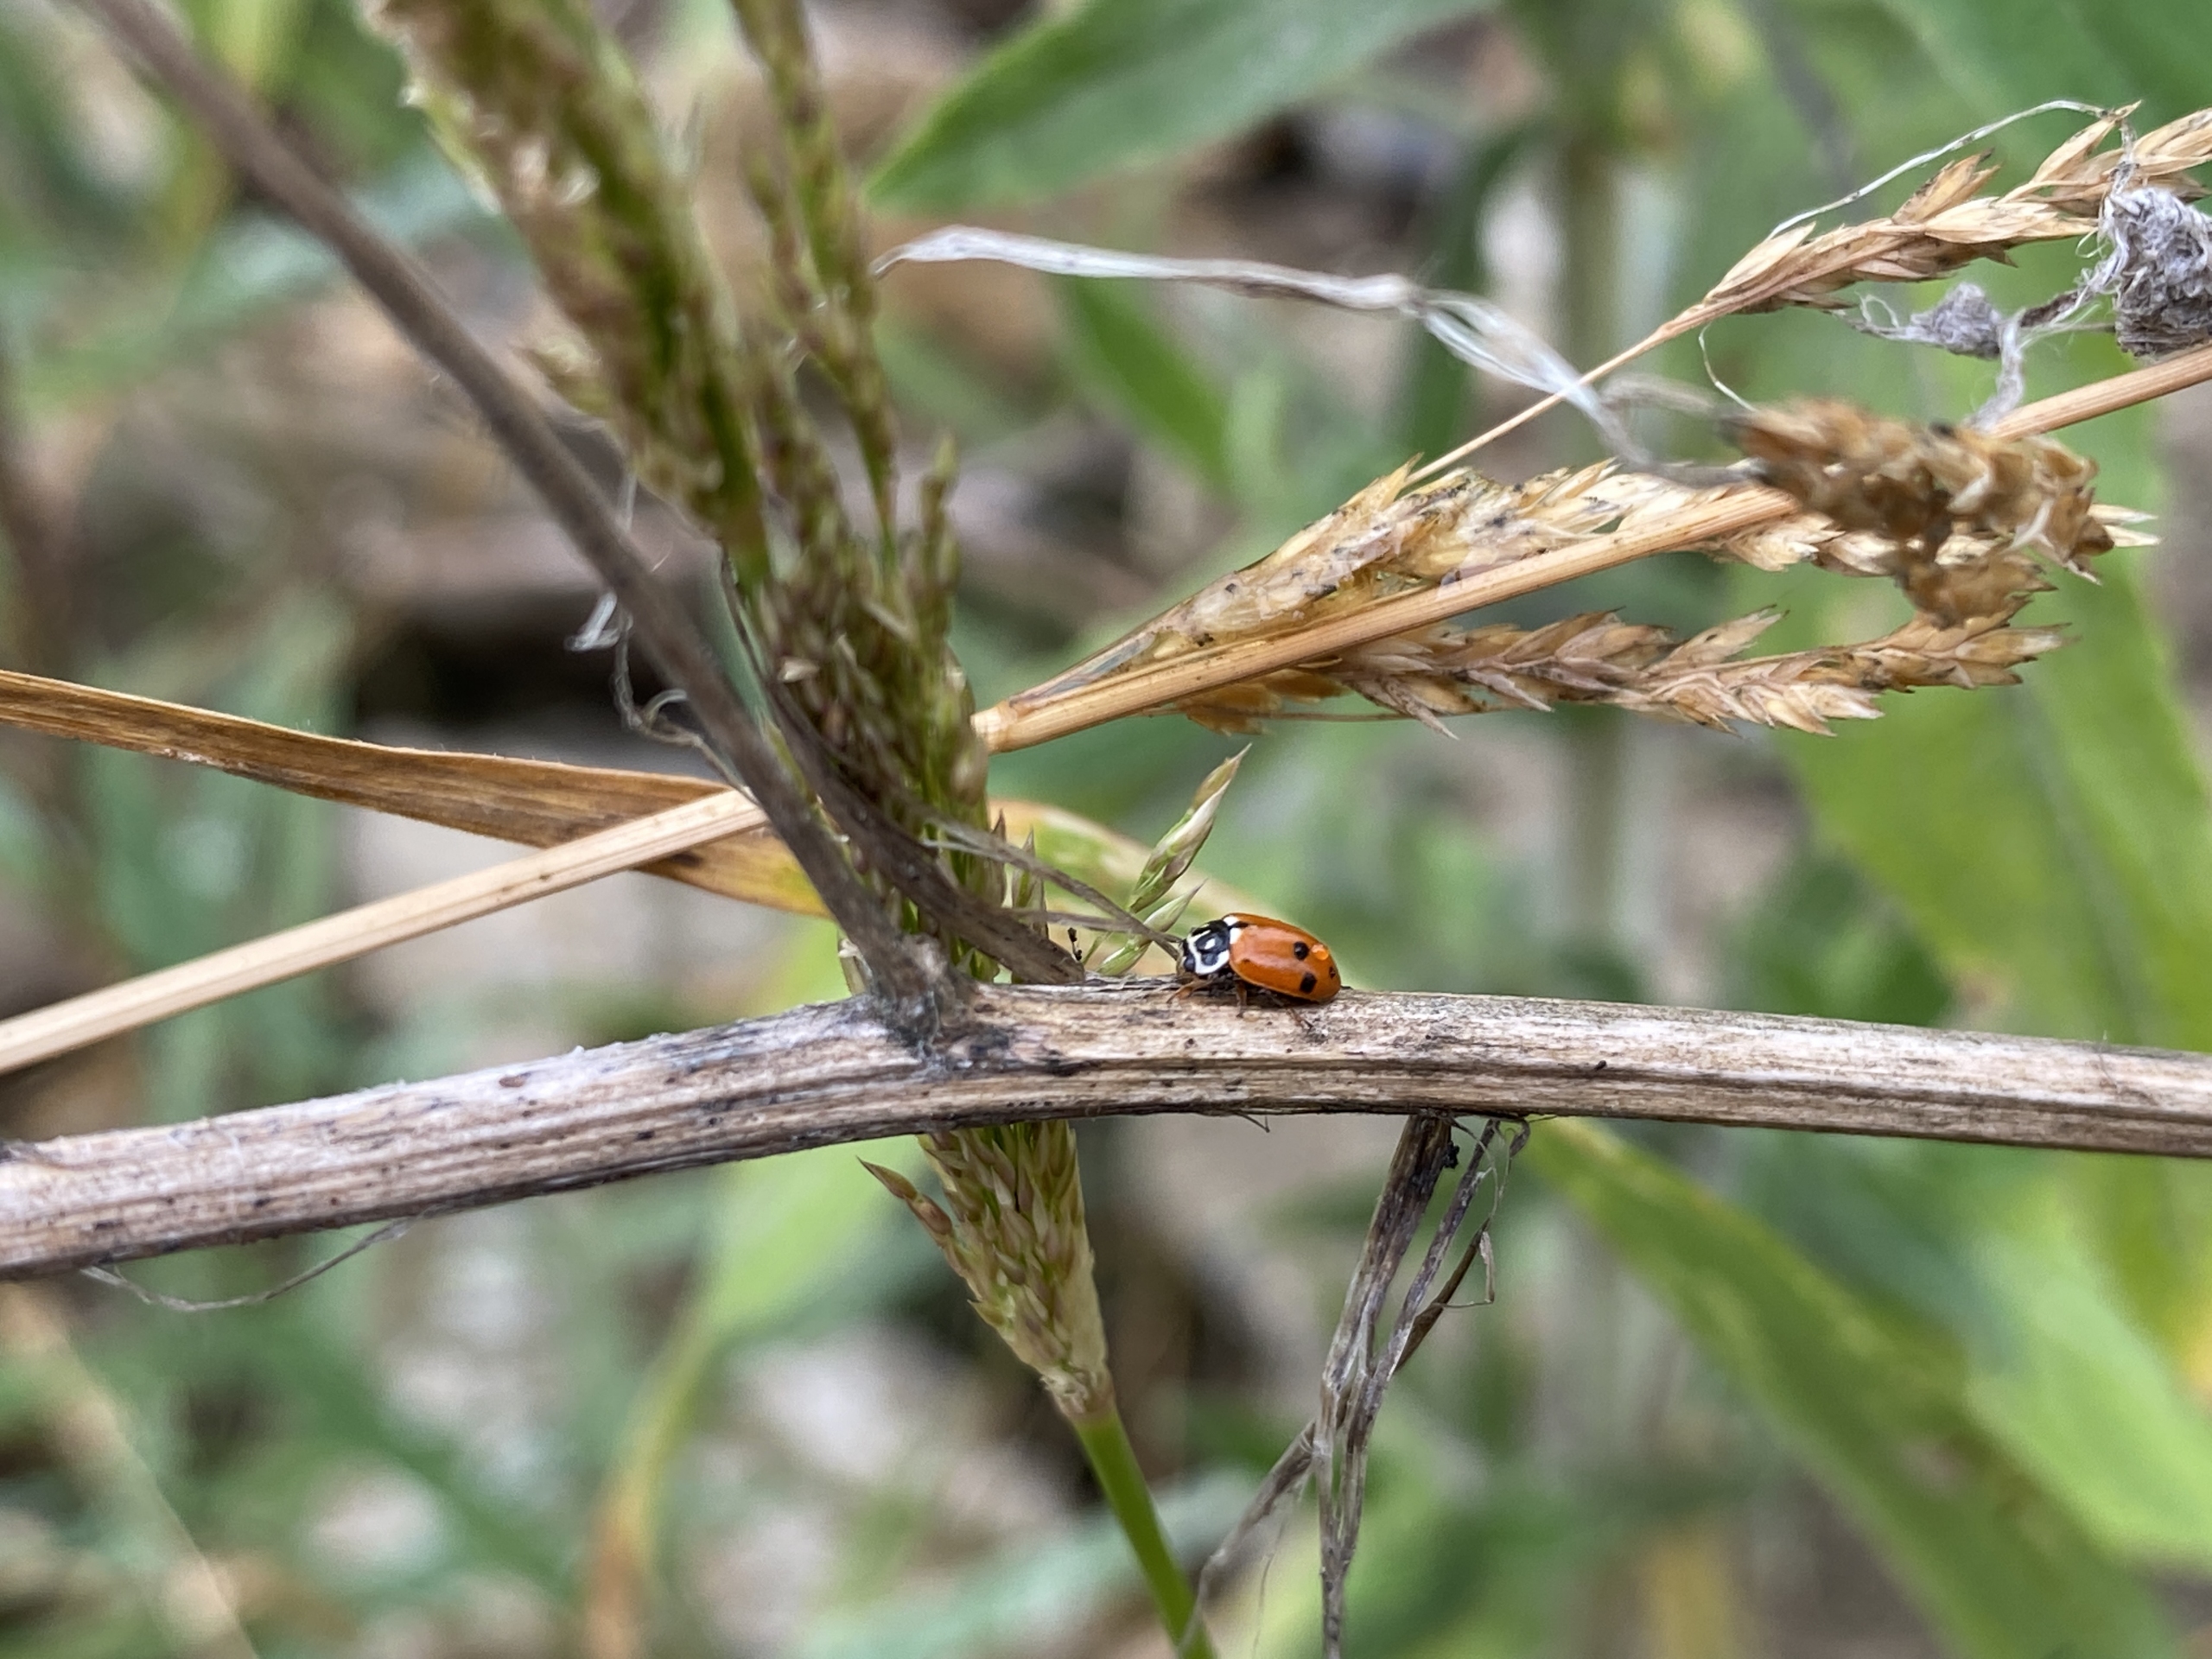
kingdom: Animalia
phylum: Arthropoda
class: Insecta
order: Coleoptera
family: Coccinellidae
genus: Hippodamia
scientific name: Hippodamia variegata
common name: Adonis' mariehøne
